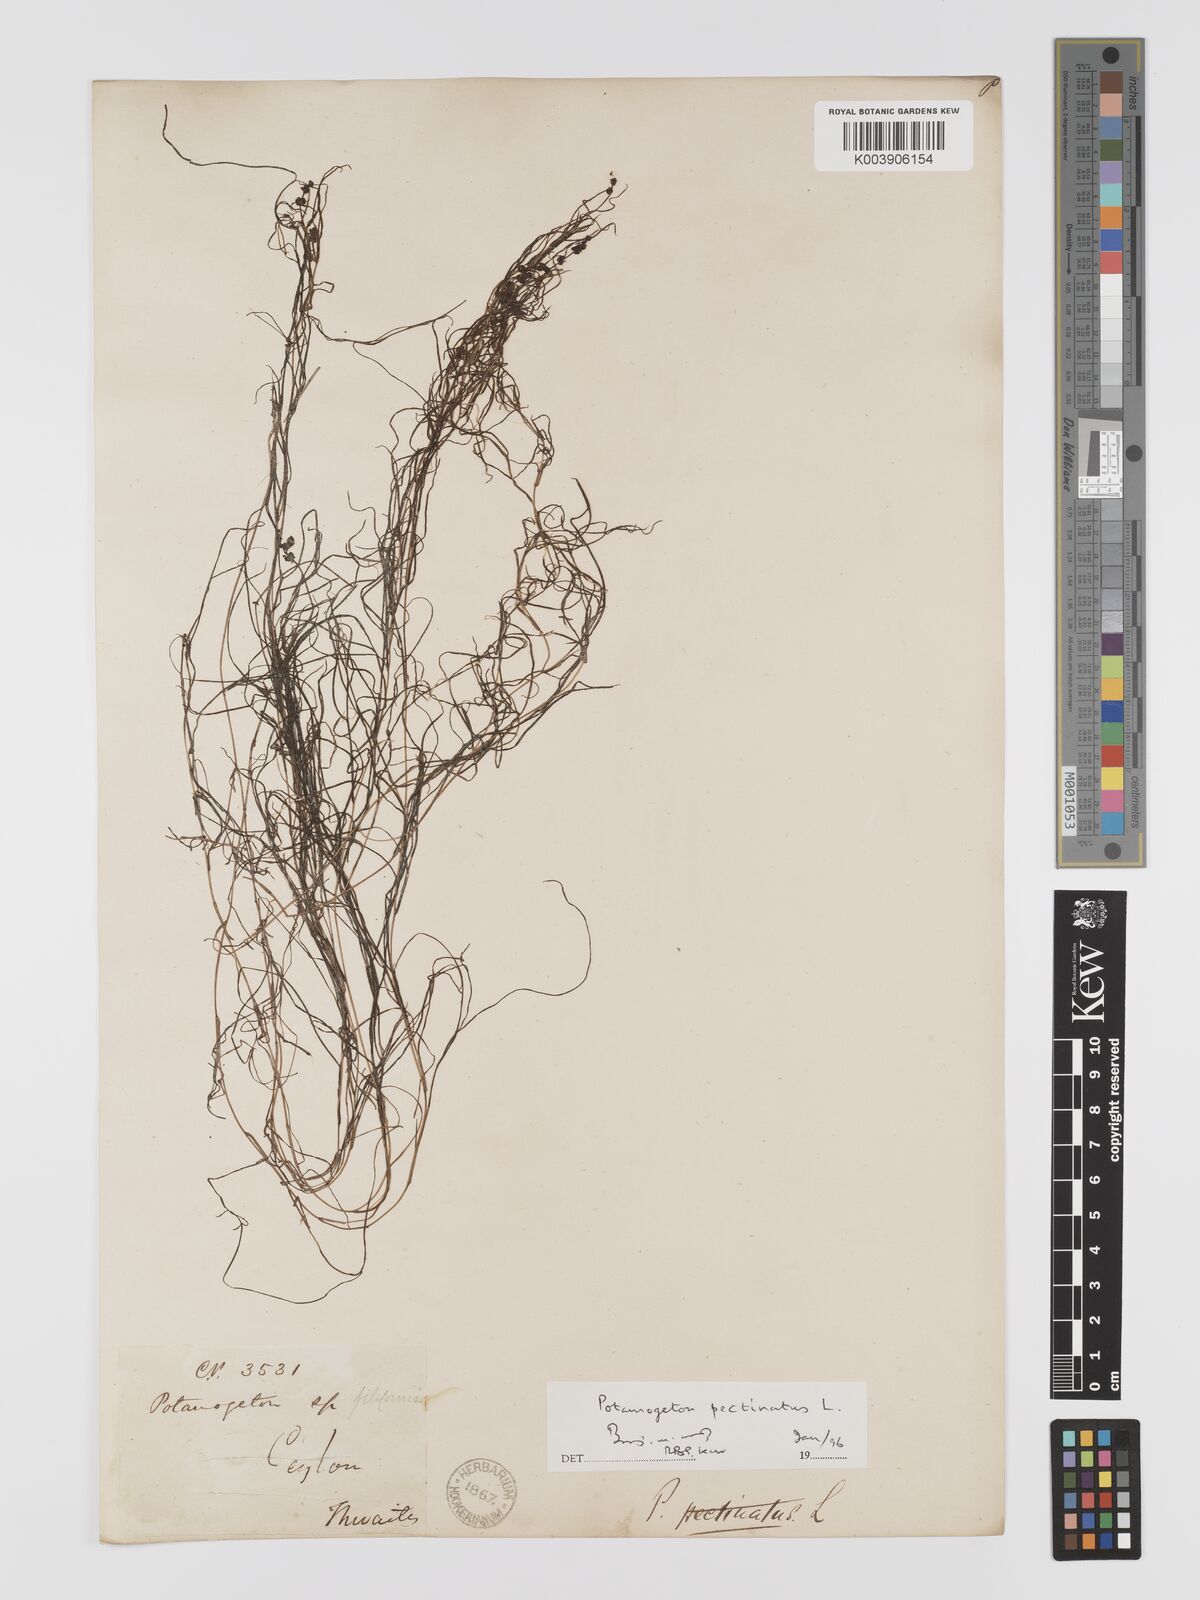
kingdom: Plantae
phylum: Tracheophyta
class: Liliopsida
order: Alismatales
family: Potamogetonaceae
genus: Stuckenia
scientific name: Stuckenia pectinata
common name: Sago pondweed
